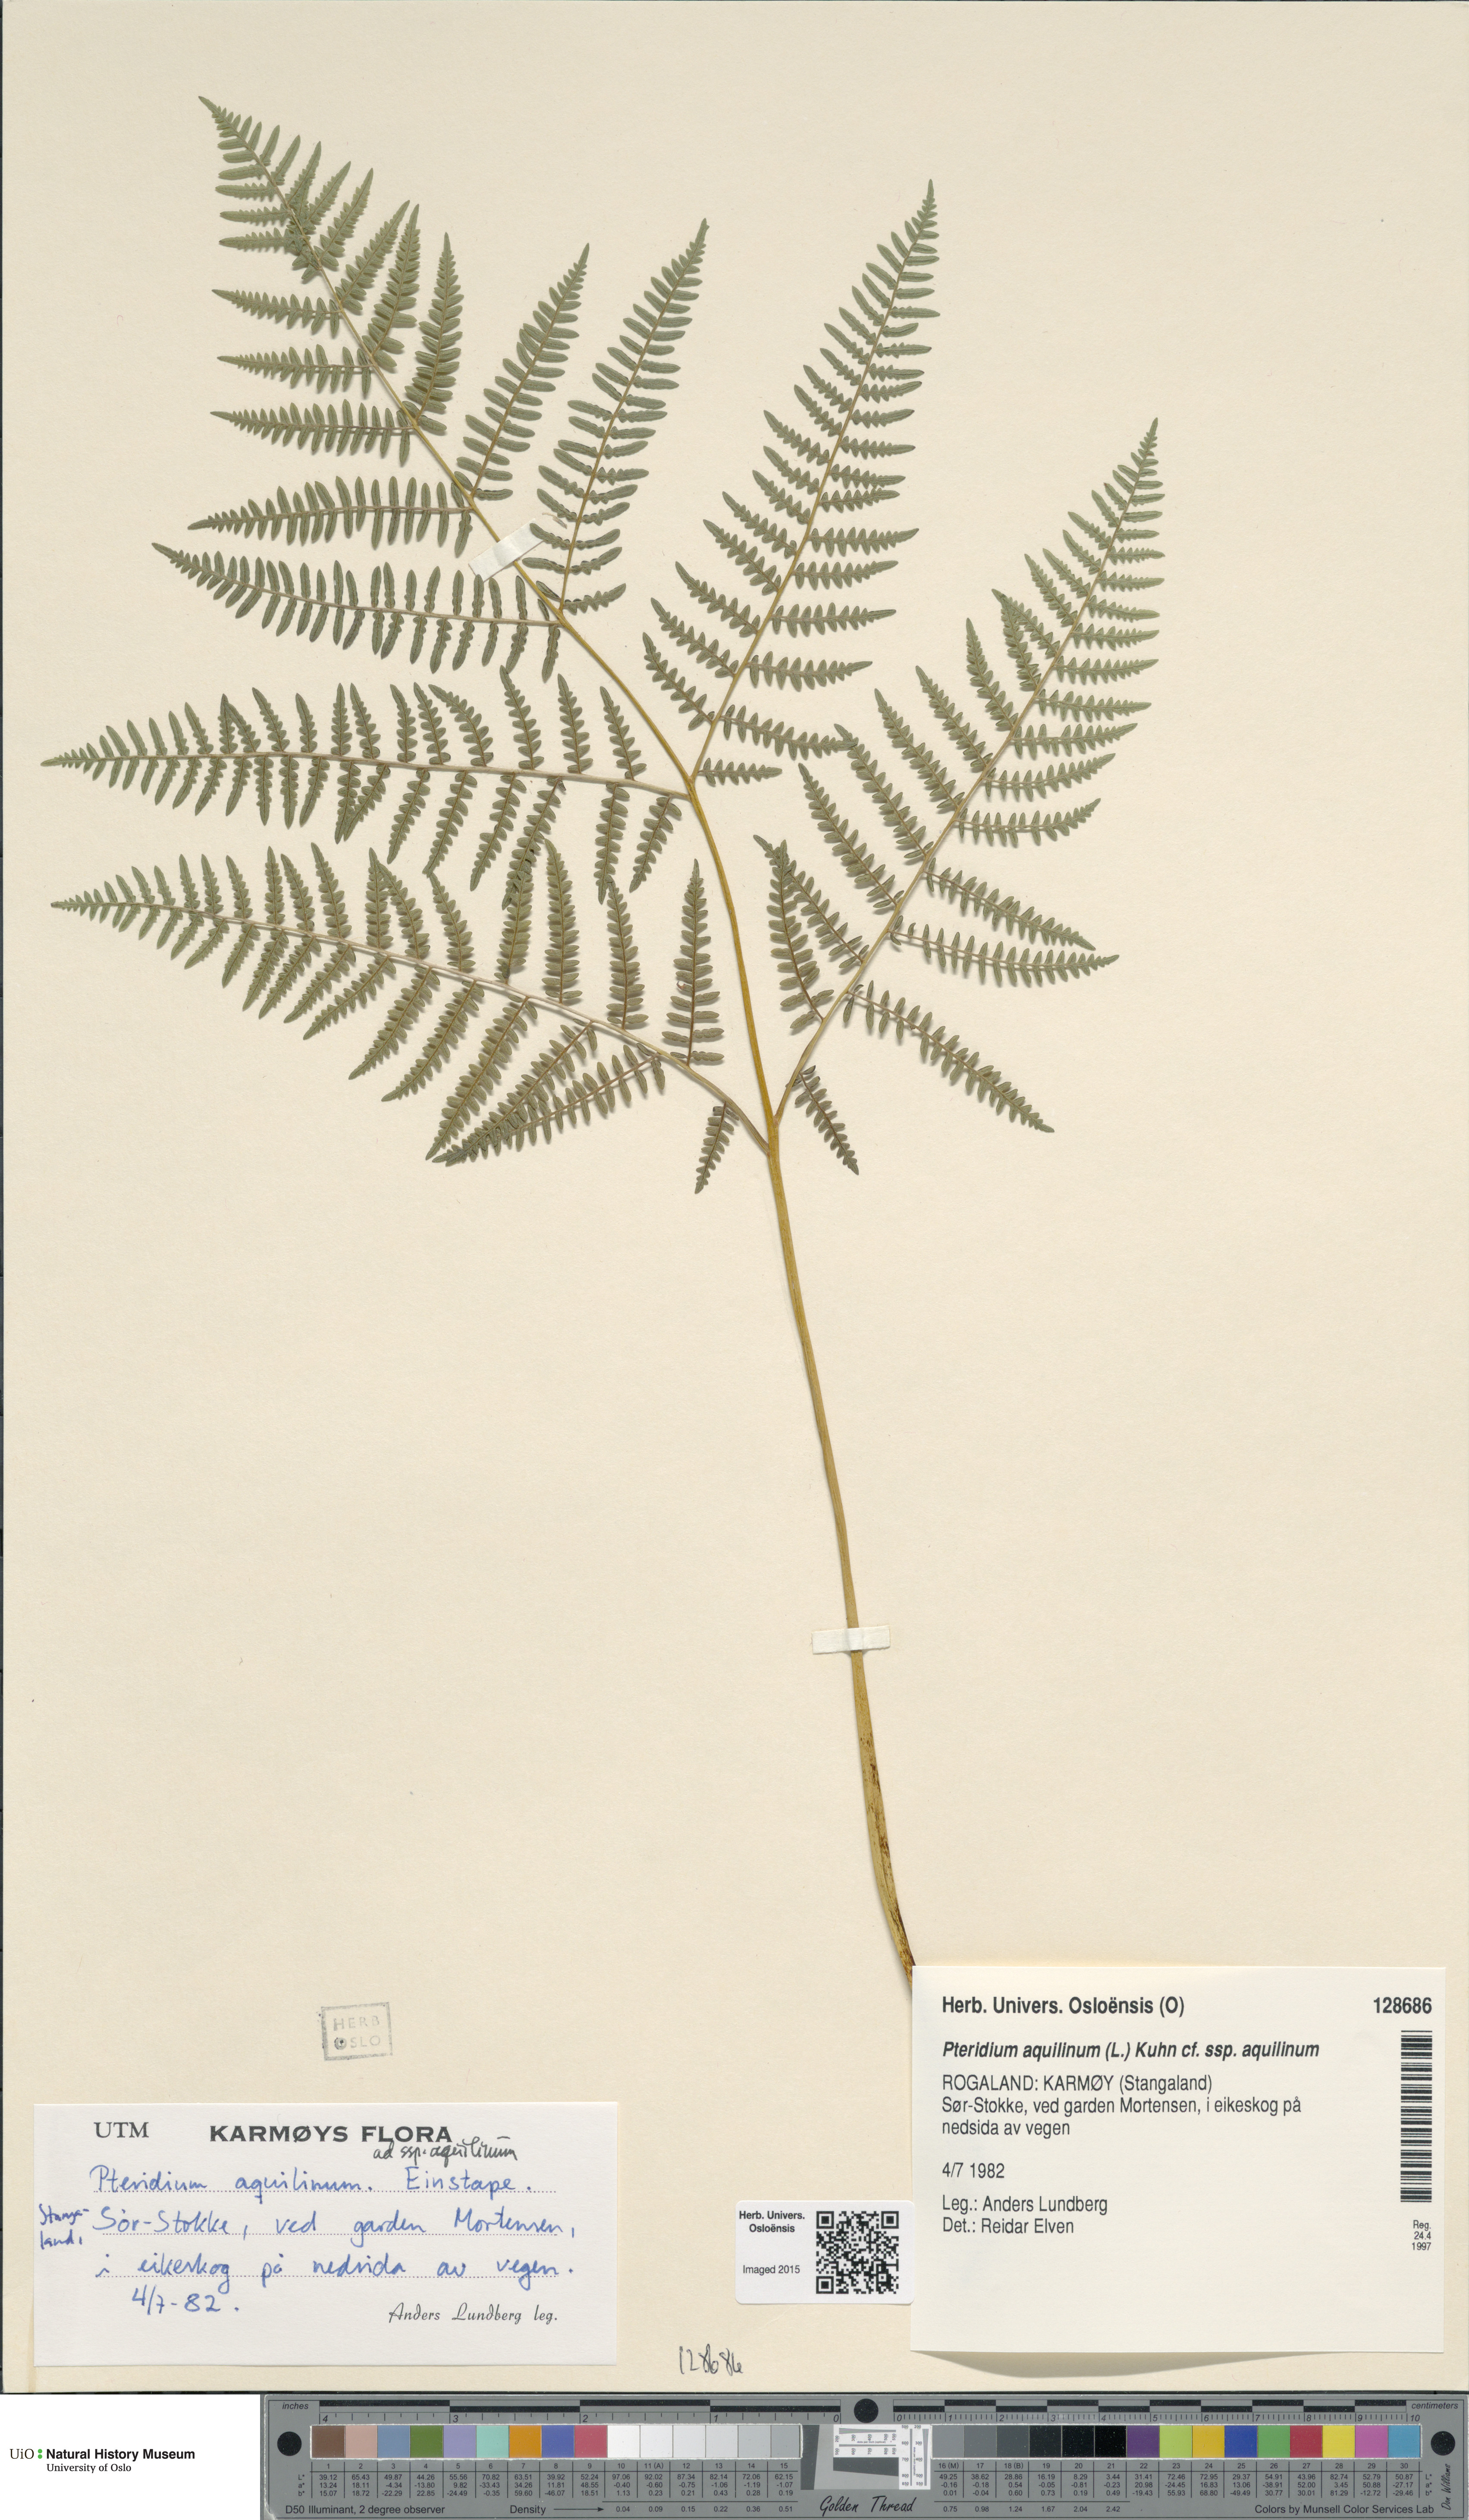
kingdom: Plantae
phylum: Tracheophyta
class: Polypodiopsida
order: Polypodiales
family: Dennstaedtiaceae
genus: Pteridium
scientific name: Pteridium aquilinum
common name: Bracken
